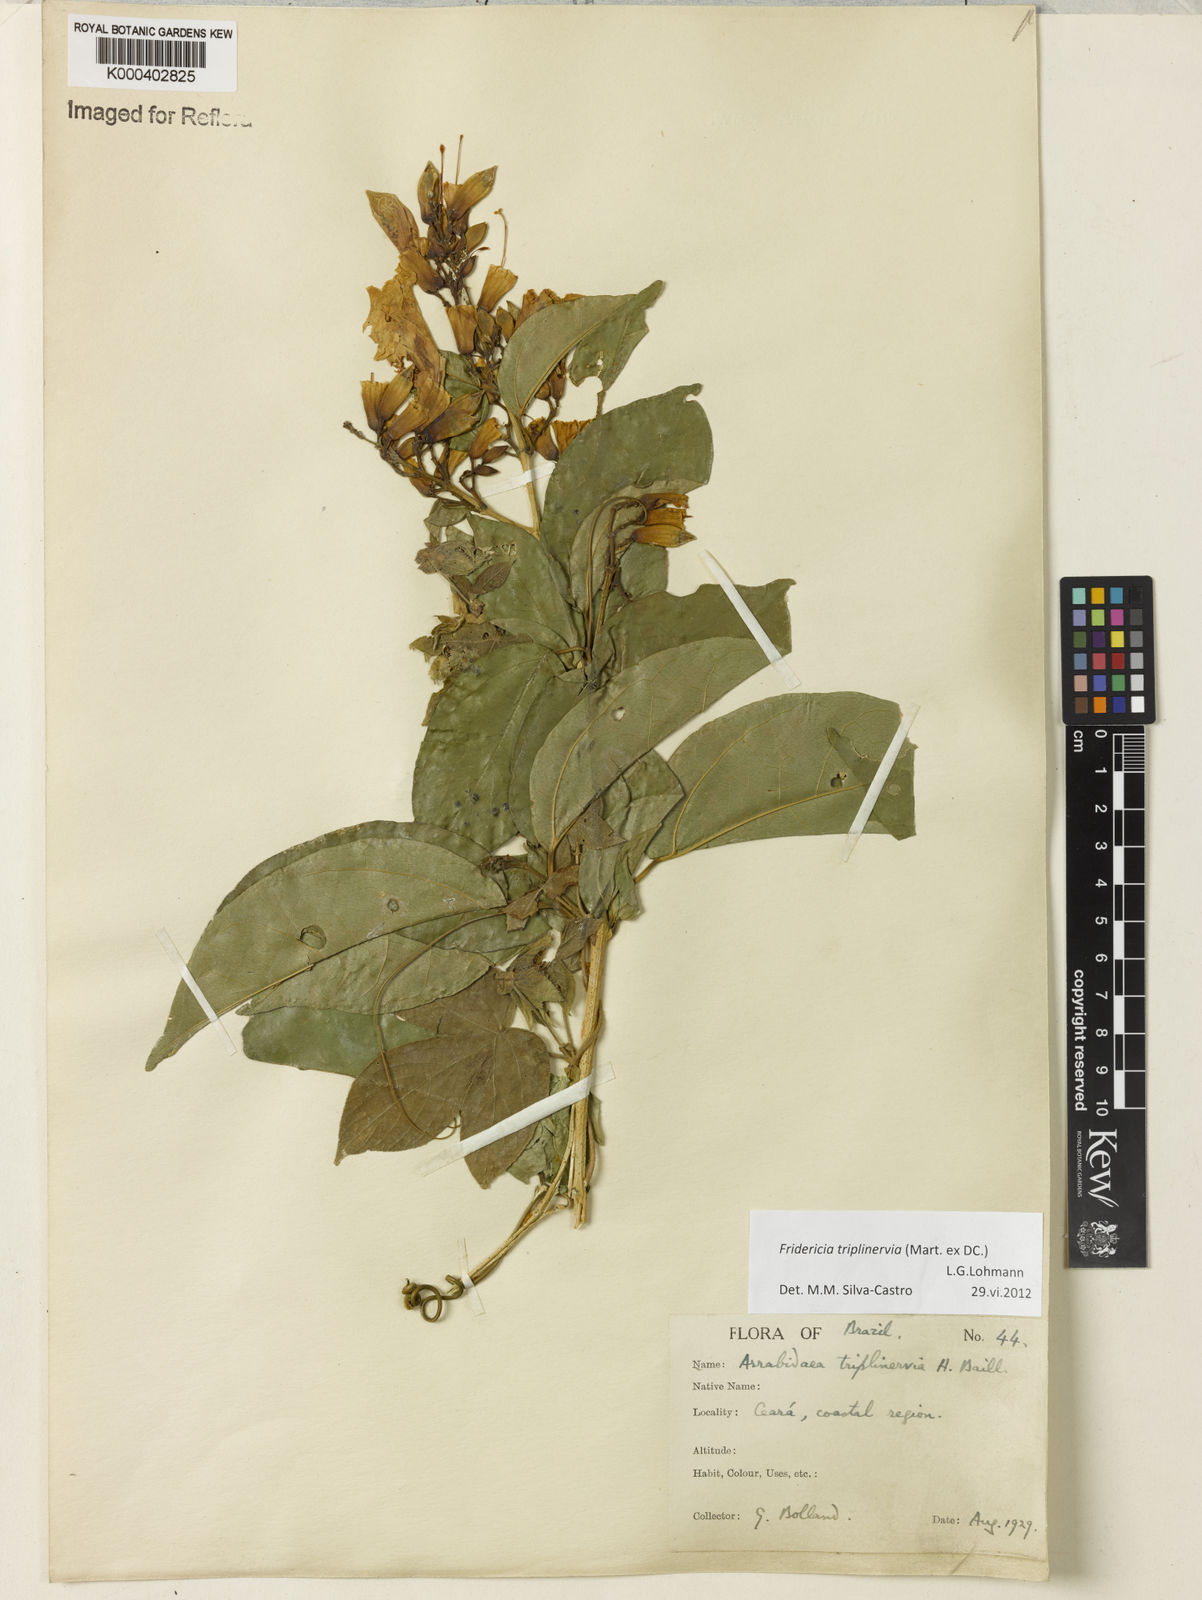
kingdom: Plantae
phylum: Tracheophyta
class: Magnoliopsida
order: Lamiales
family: Bignoniaceae
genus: Fridericia
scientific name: Fridericia triplinervia
